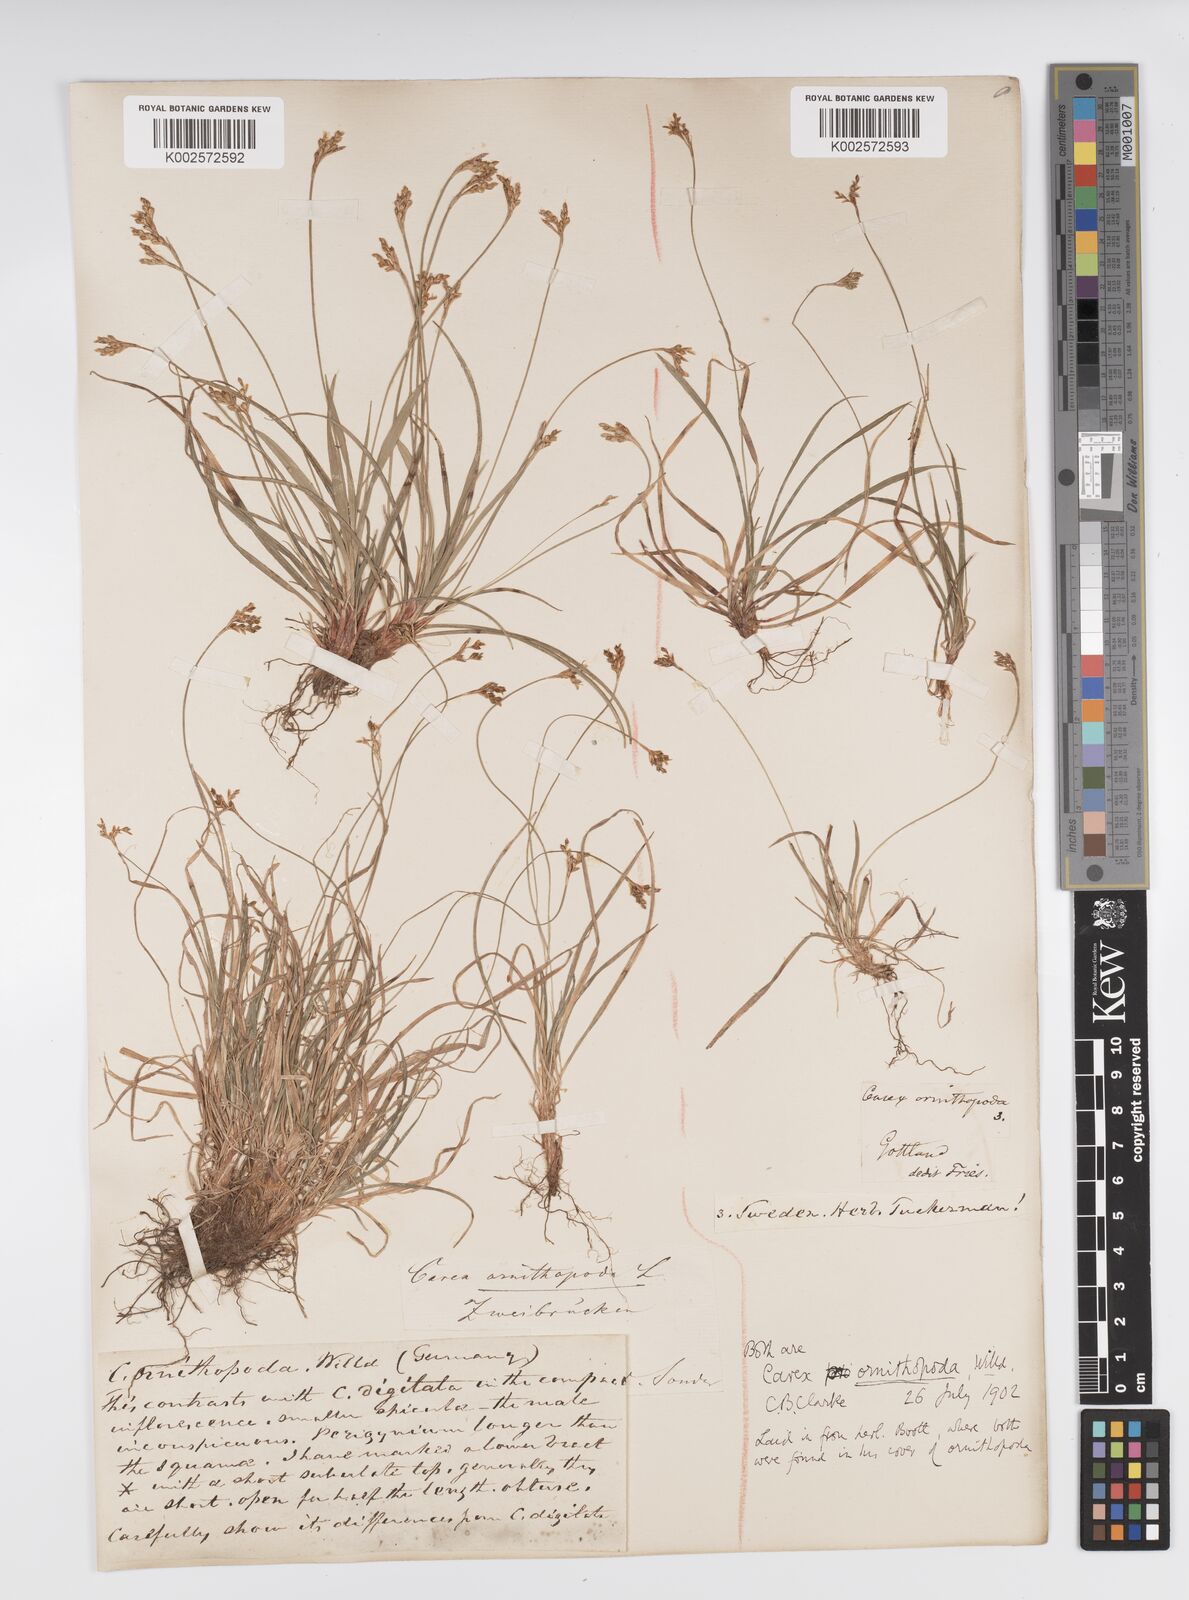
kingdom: Plantae
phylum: Tracheophyta
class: Liliopsida
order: Poales
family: Cyperaceae
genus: Carex
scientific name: Carex ornithopoda
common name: Bird's-foot sedge
